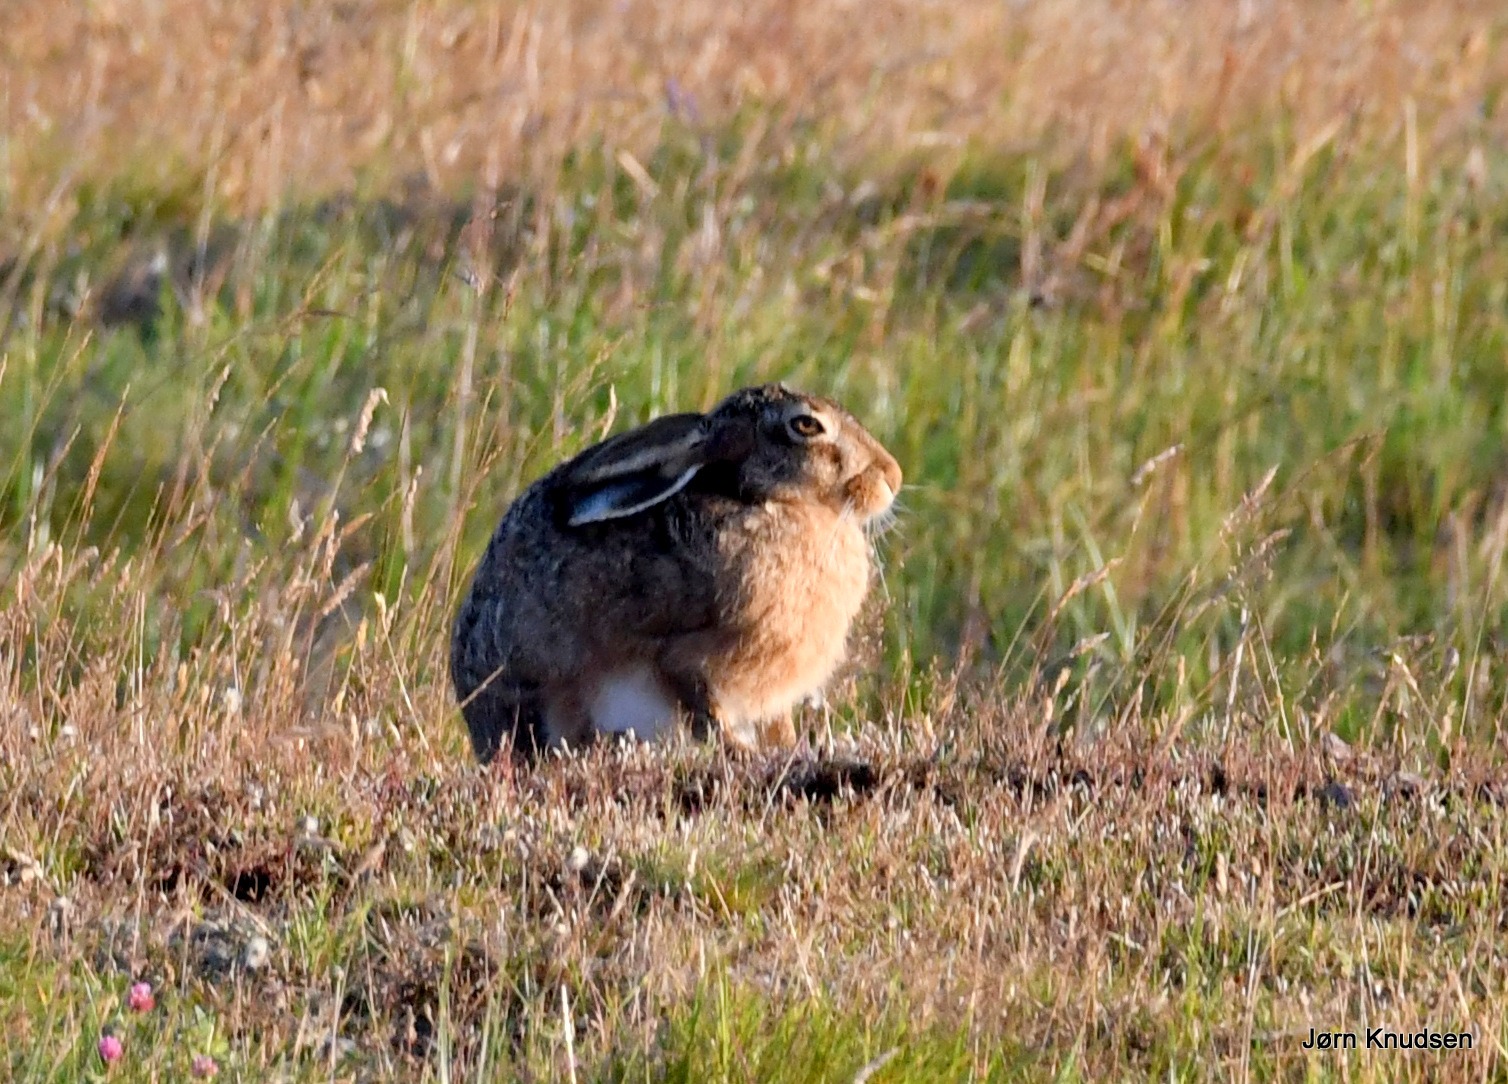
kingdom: Animalia
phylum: Chordata
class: Mammalia
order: Lagomorpha
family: Leporidae
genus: Lepus
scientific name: Lepus europaeus
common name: Hare
